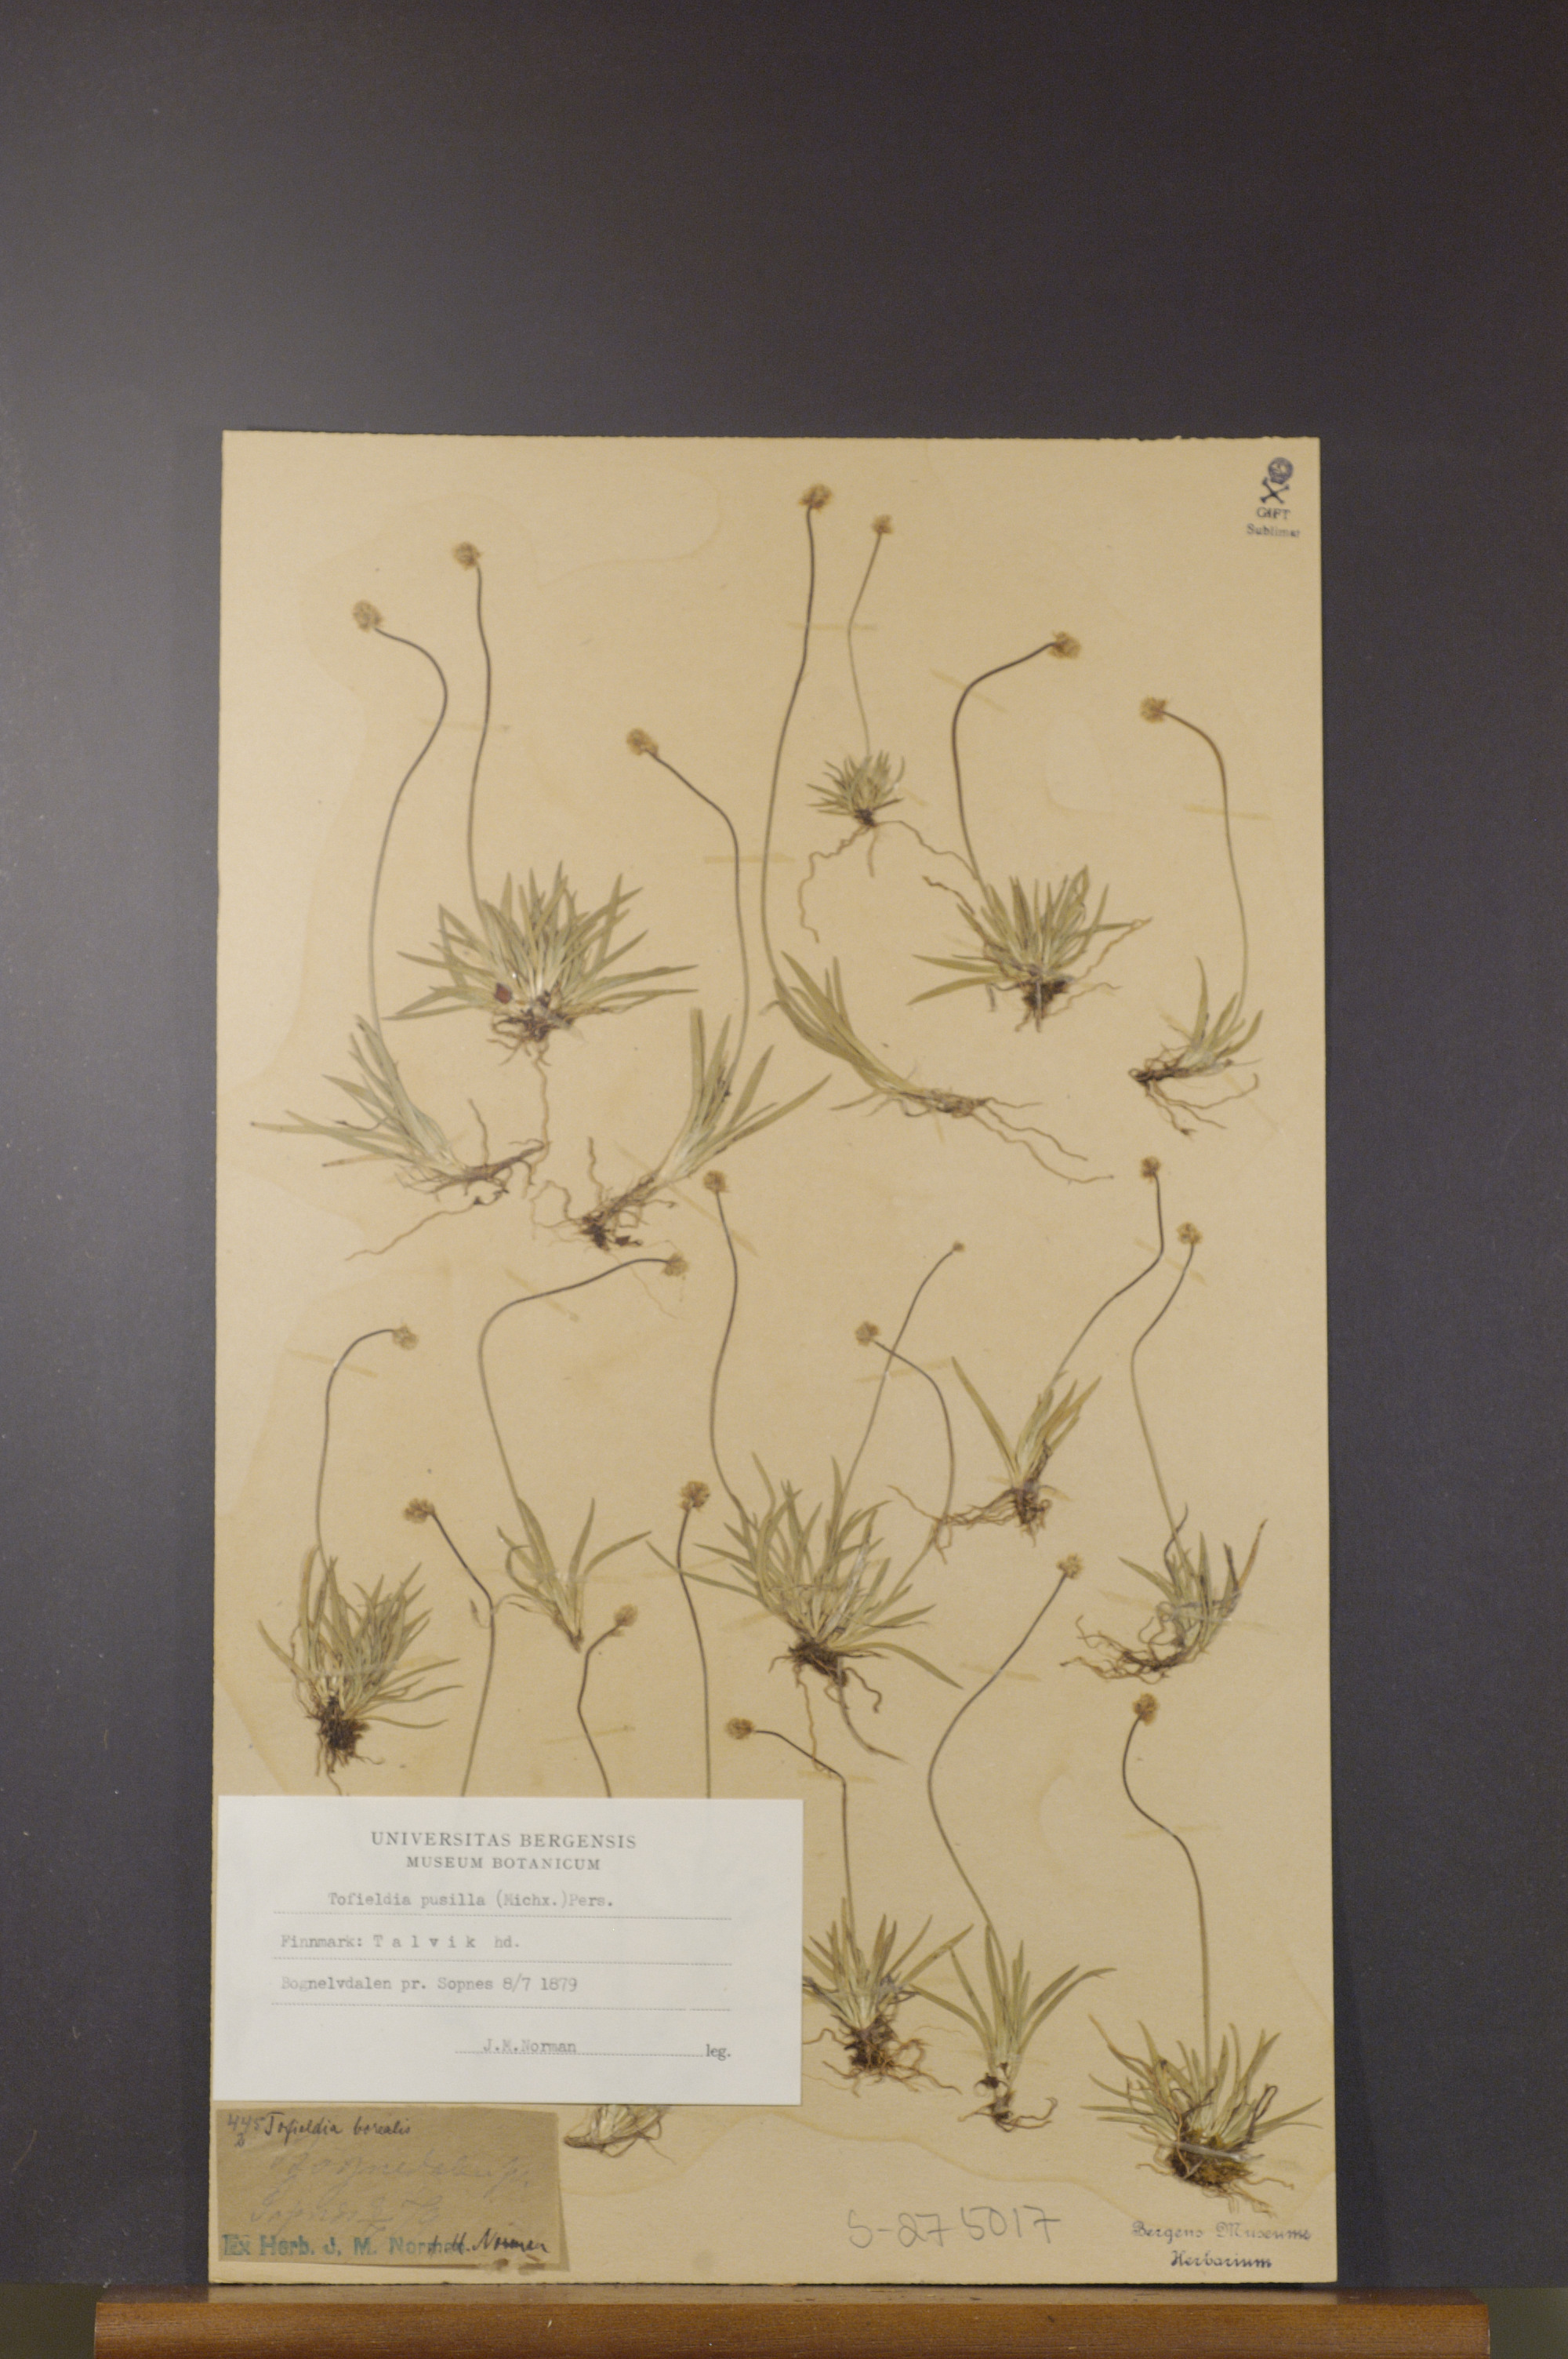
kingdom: Plantae
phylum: Tracheophyta
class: Liliopsida
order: Alismatales
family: Tofieldiaceae
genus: Tofieldia
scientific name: Tofieldia pusilla
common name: Scottish false asphodel
